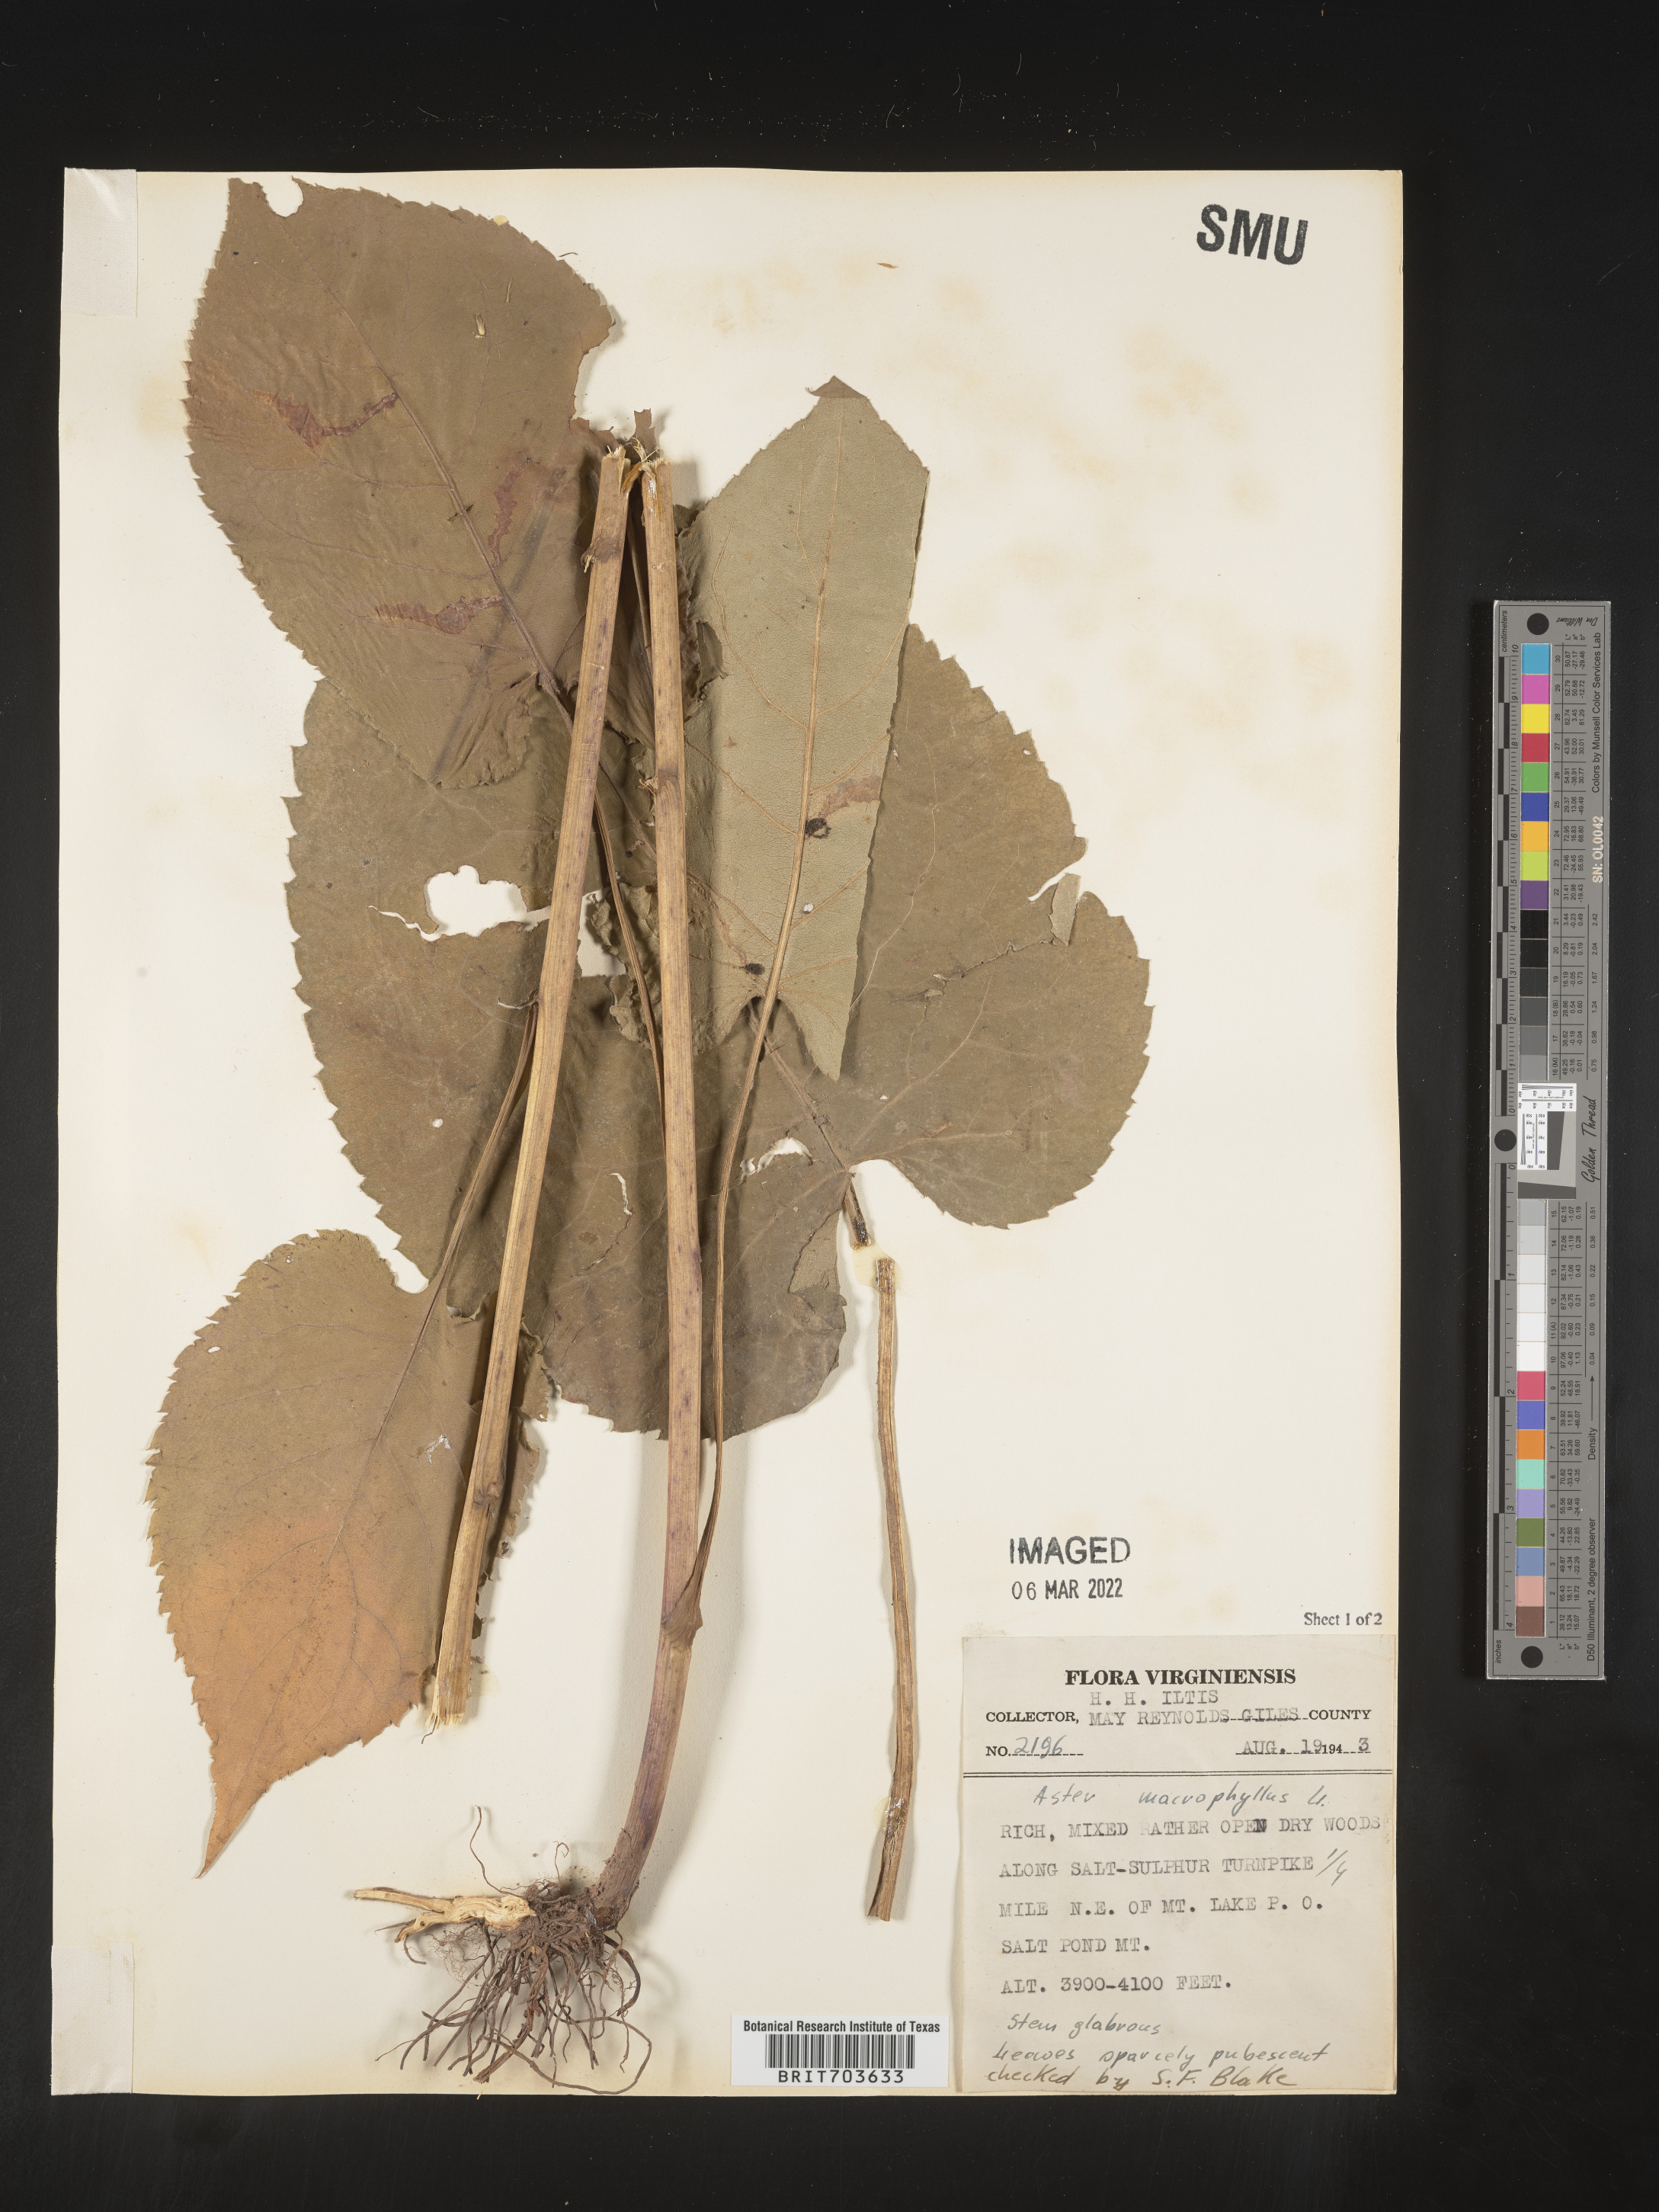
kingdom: Plantae
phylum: Tracheophyta
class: Magnoliopsida
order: Asterales
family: Asteraceae
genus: Eurybia
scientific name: Eurybia macrophylla
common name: Big-leaved aster
